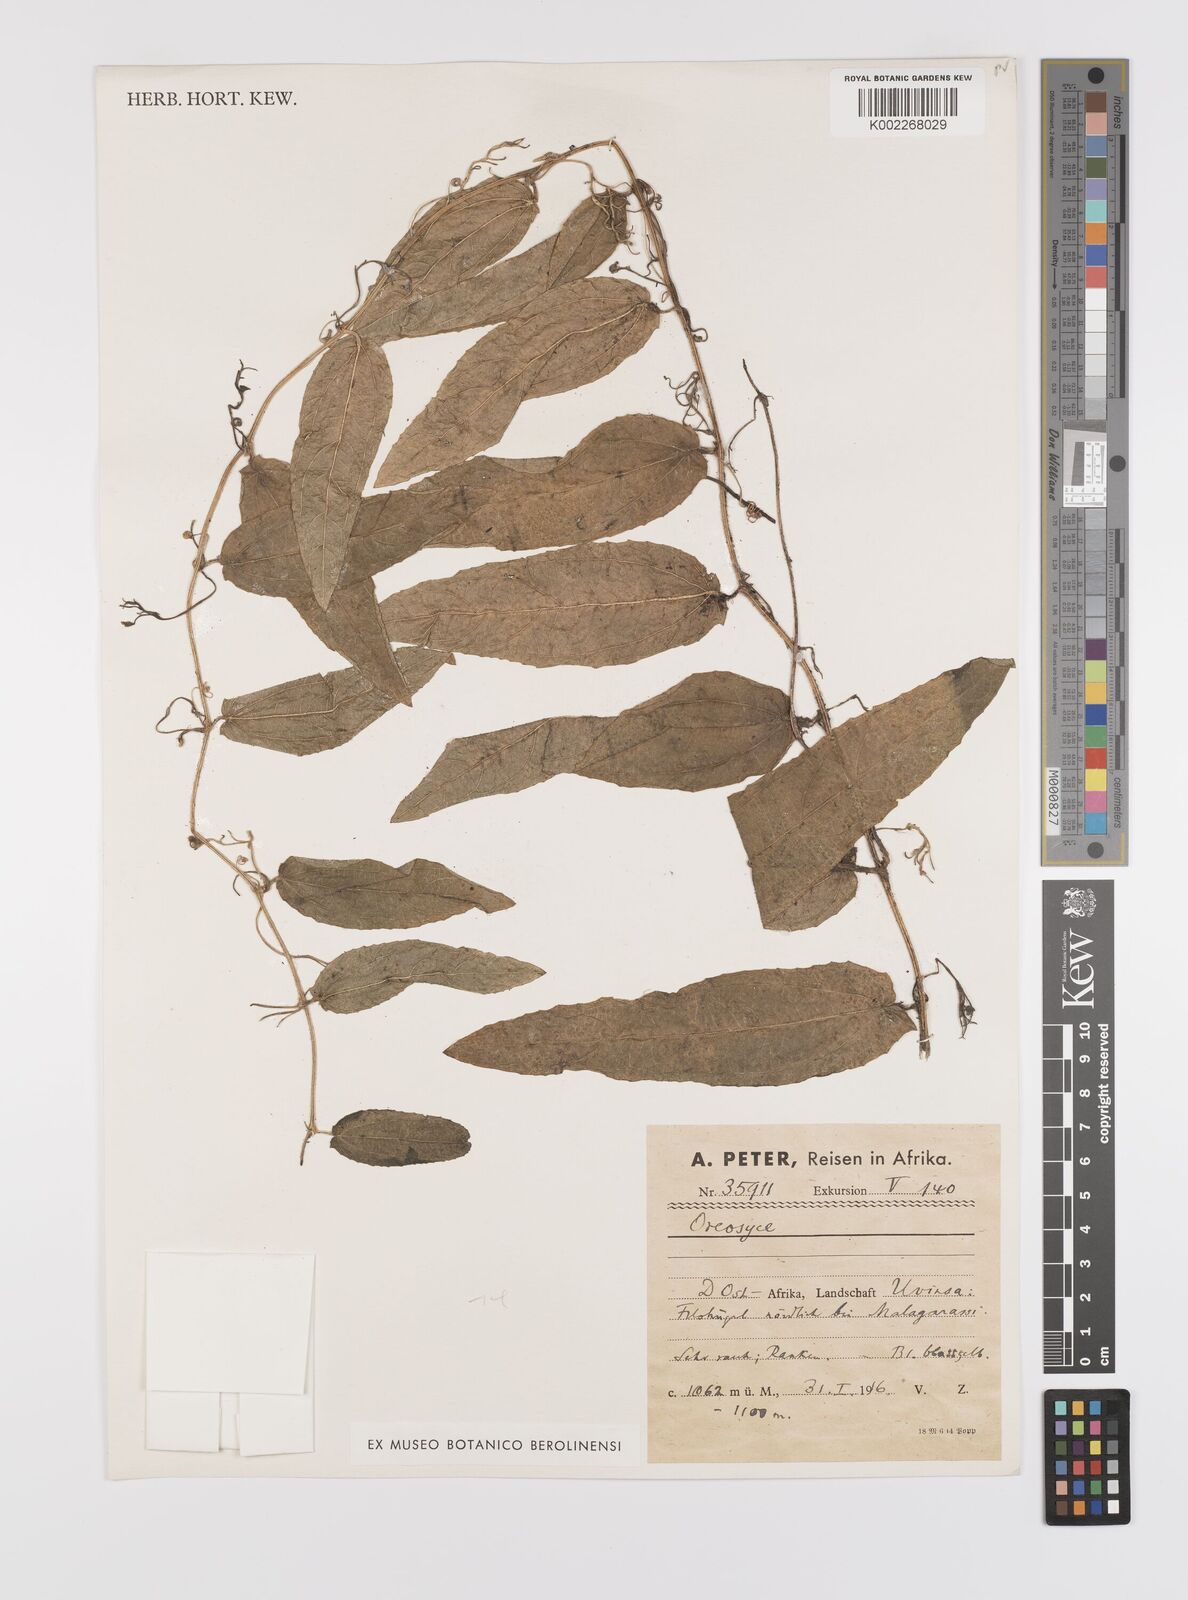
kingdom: Plantae
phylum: Tracheophyta
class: Magnoliopsida
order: Cucurbitales
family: Cucurbitaceae
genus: Cucumis
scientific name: Cucumis hirsutus
